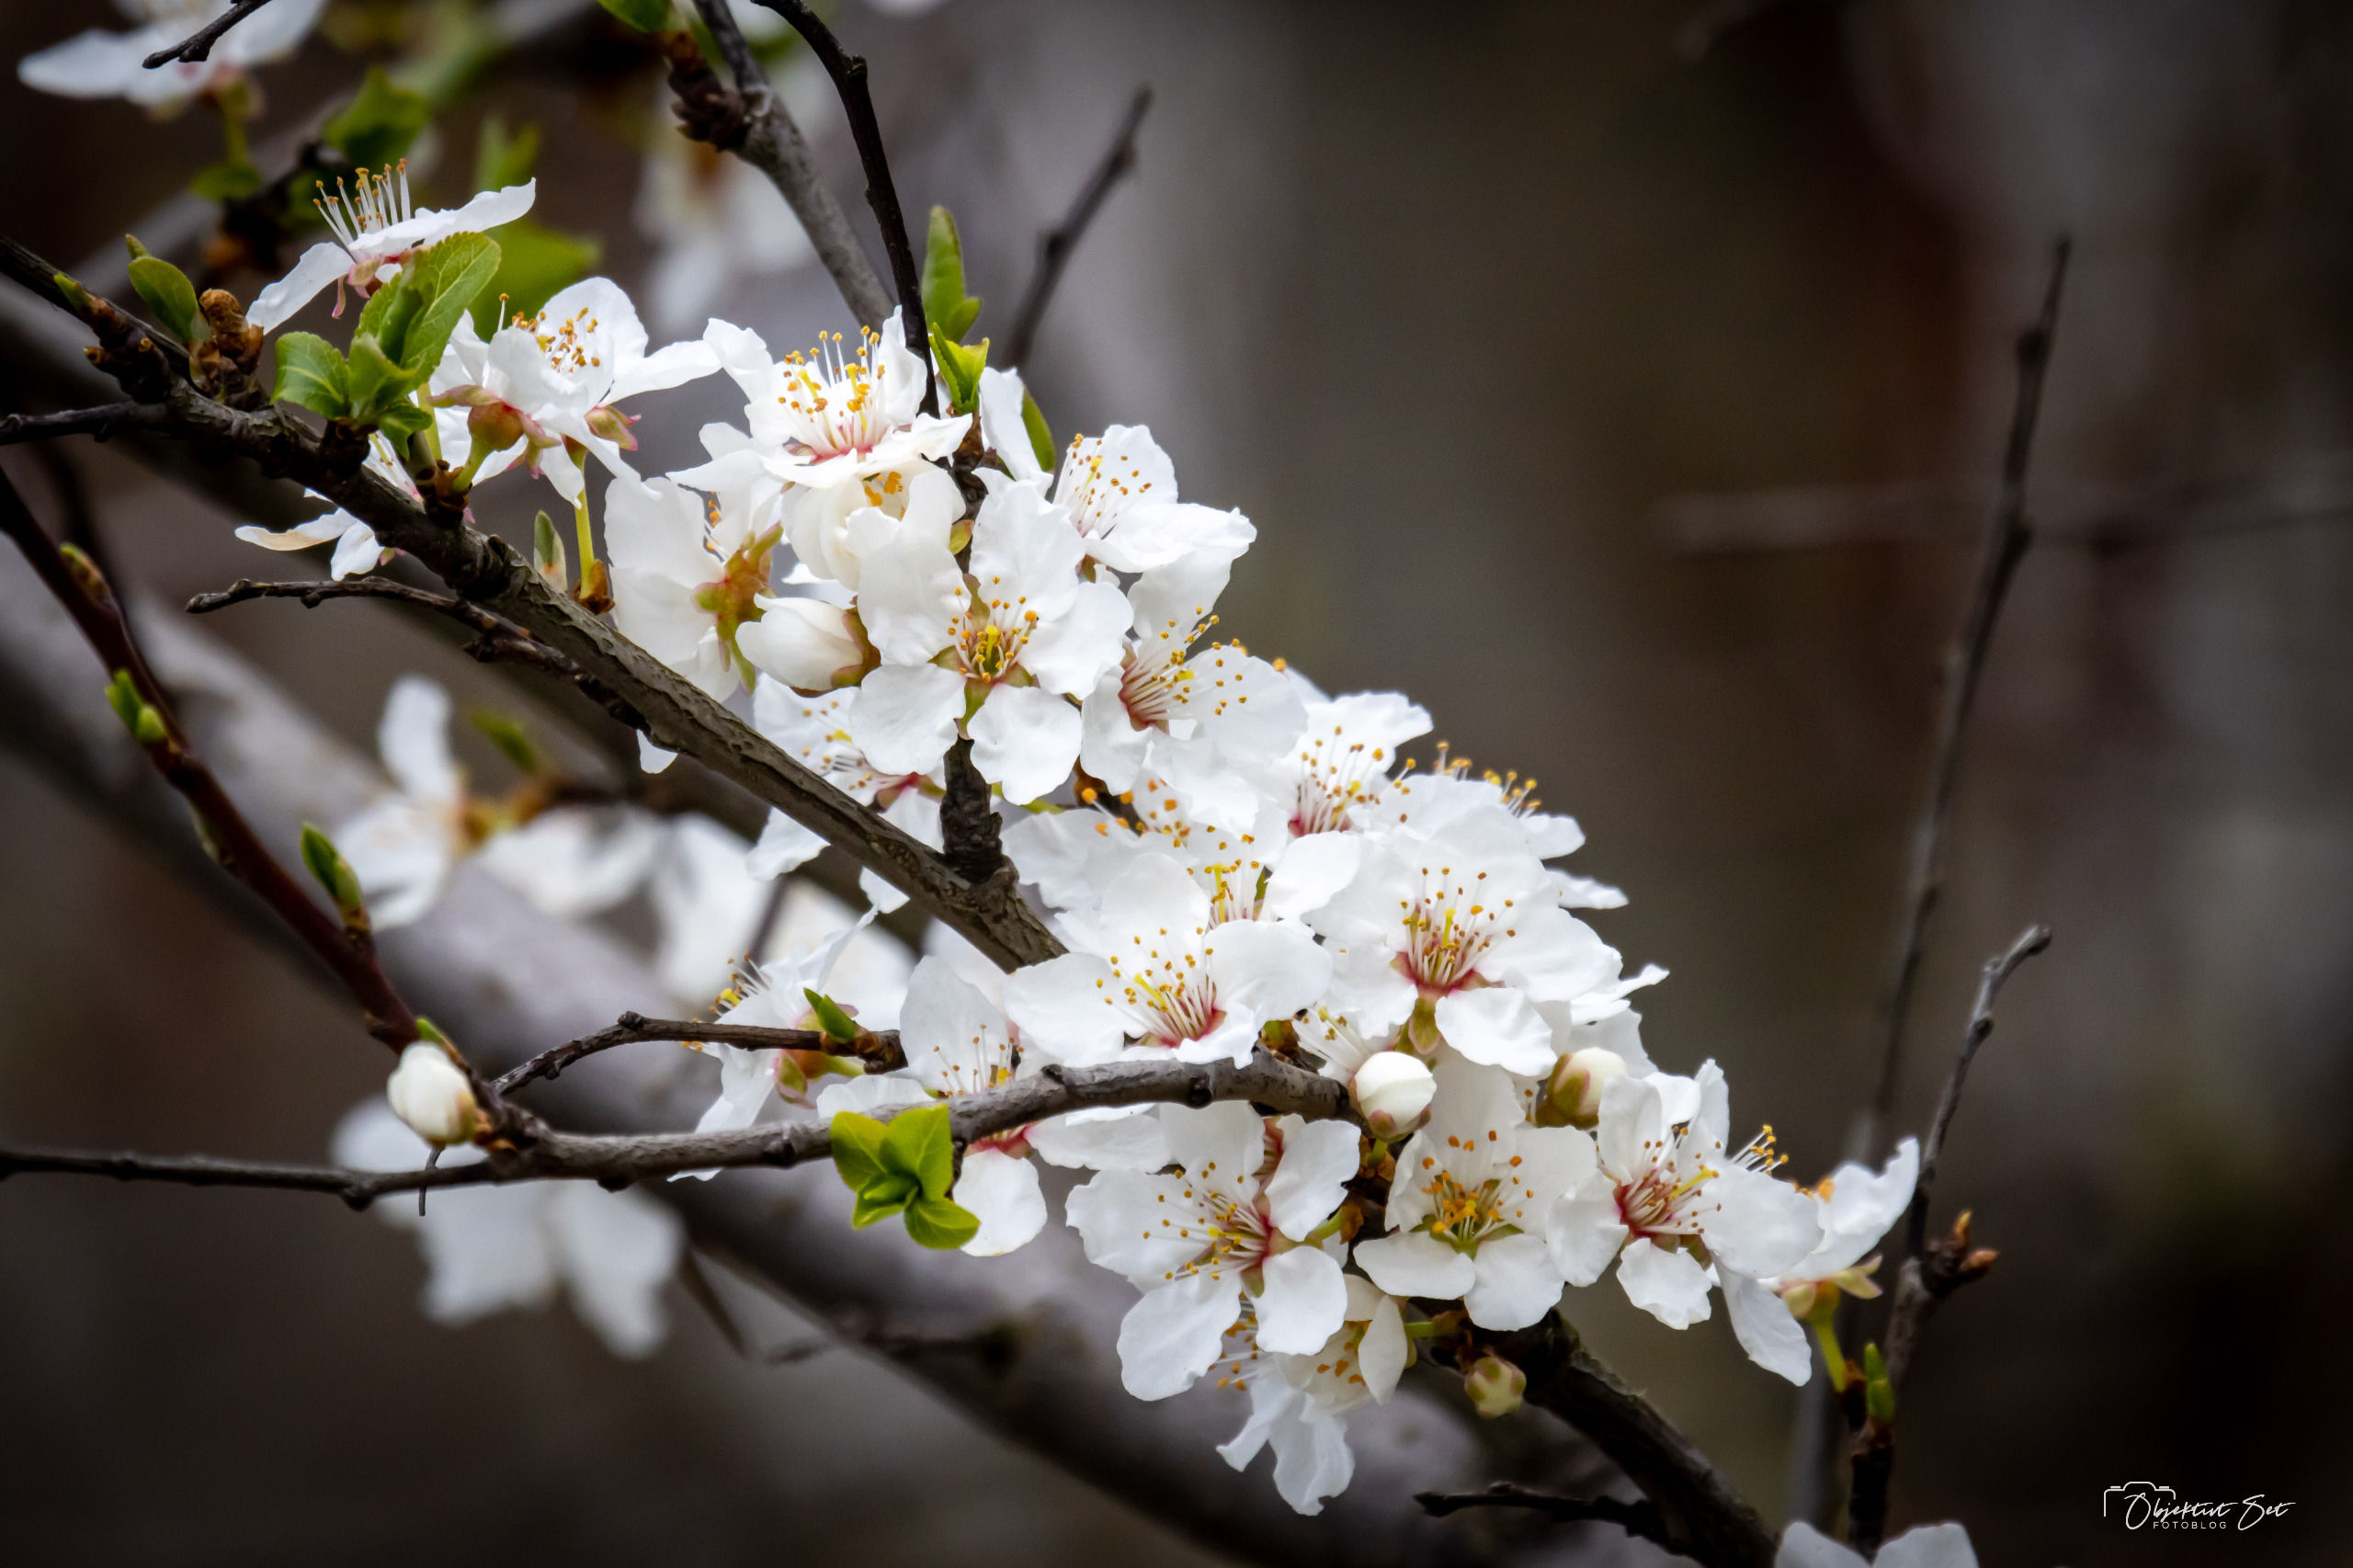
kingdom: Plantae
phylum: Tracheophyta
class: Magnoliopsida
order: Rosales
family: Rosaceae
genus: Prunus
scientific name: Prunus cerasifera
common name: Mirabel
